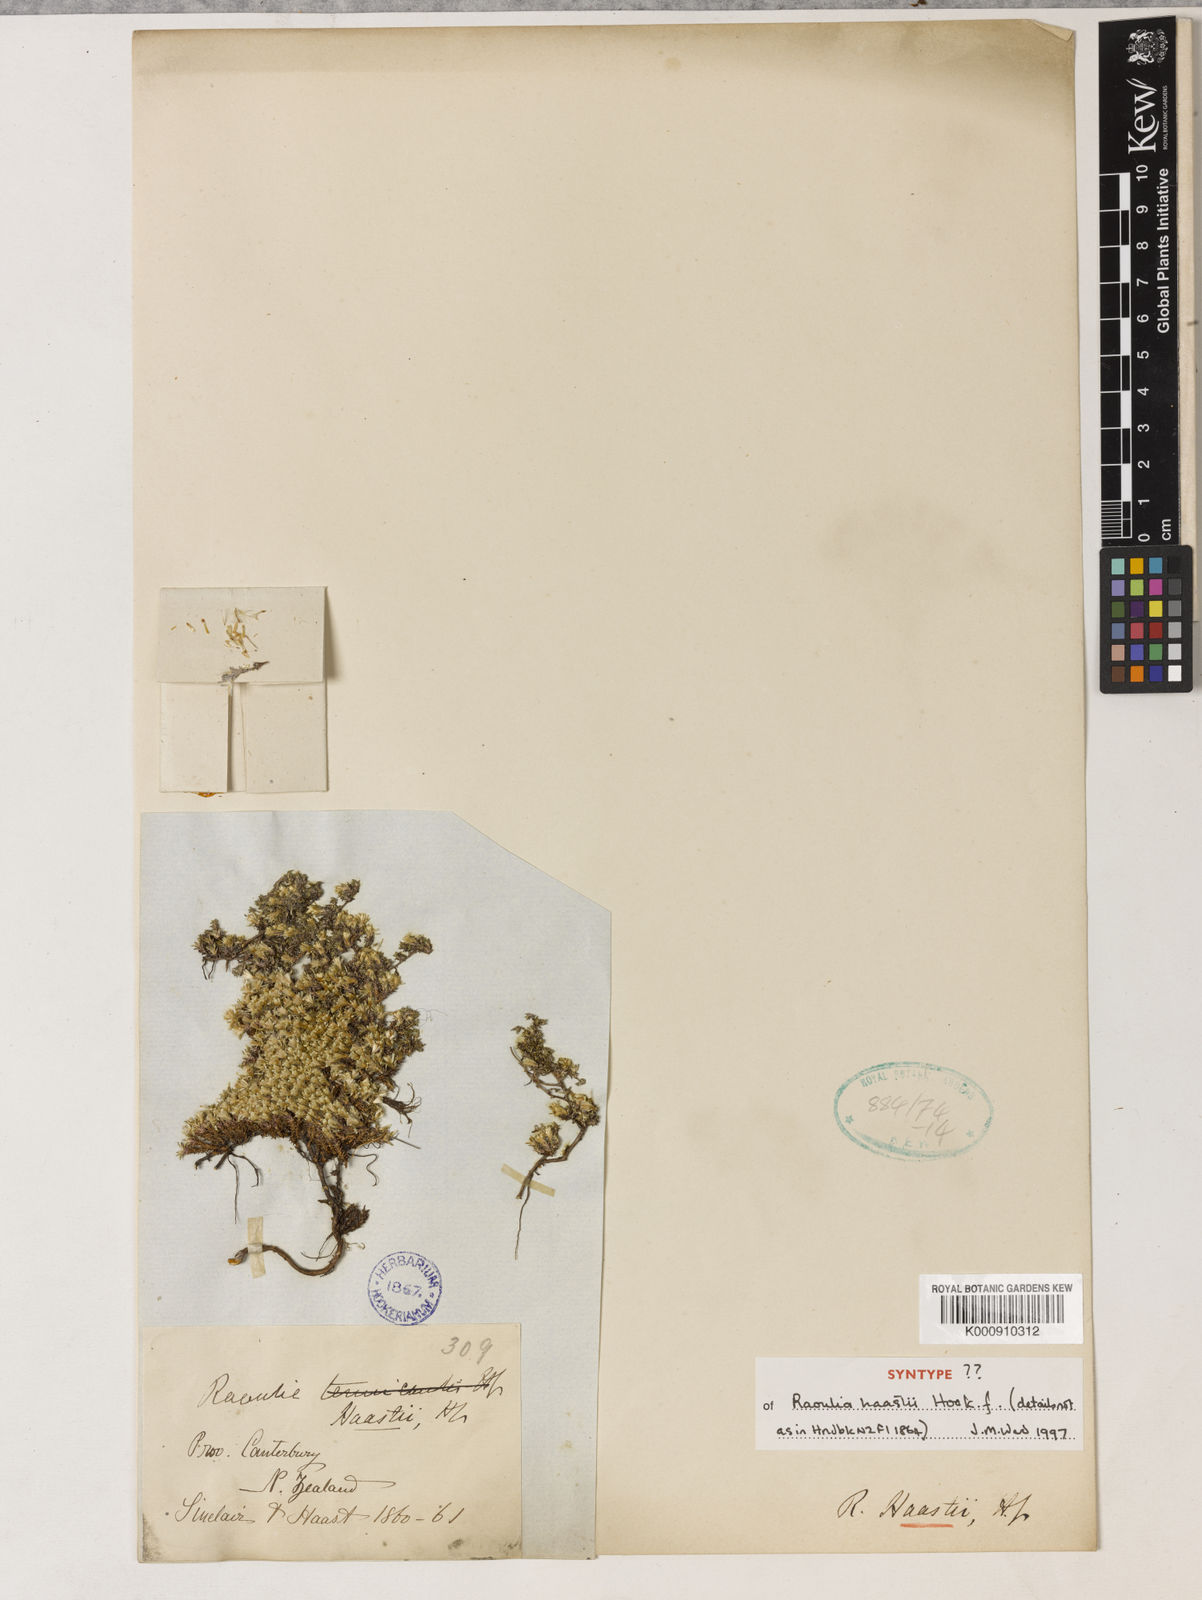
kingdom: Plantae
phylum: Tracheophyta
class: Magnoliopsida
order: Asterales
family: Asteraceae
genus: Raoulia
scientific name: Raoulia haastii
